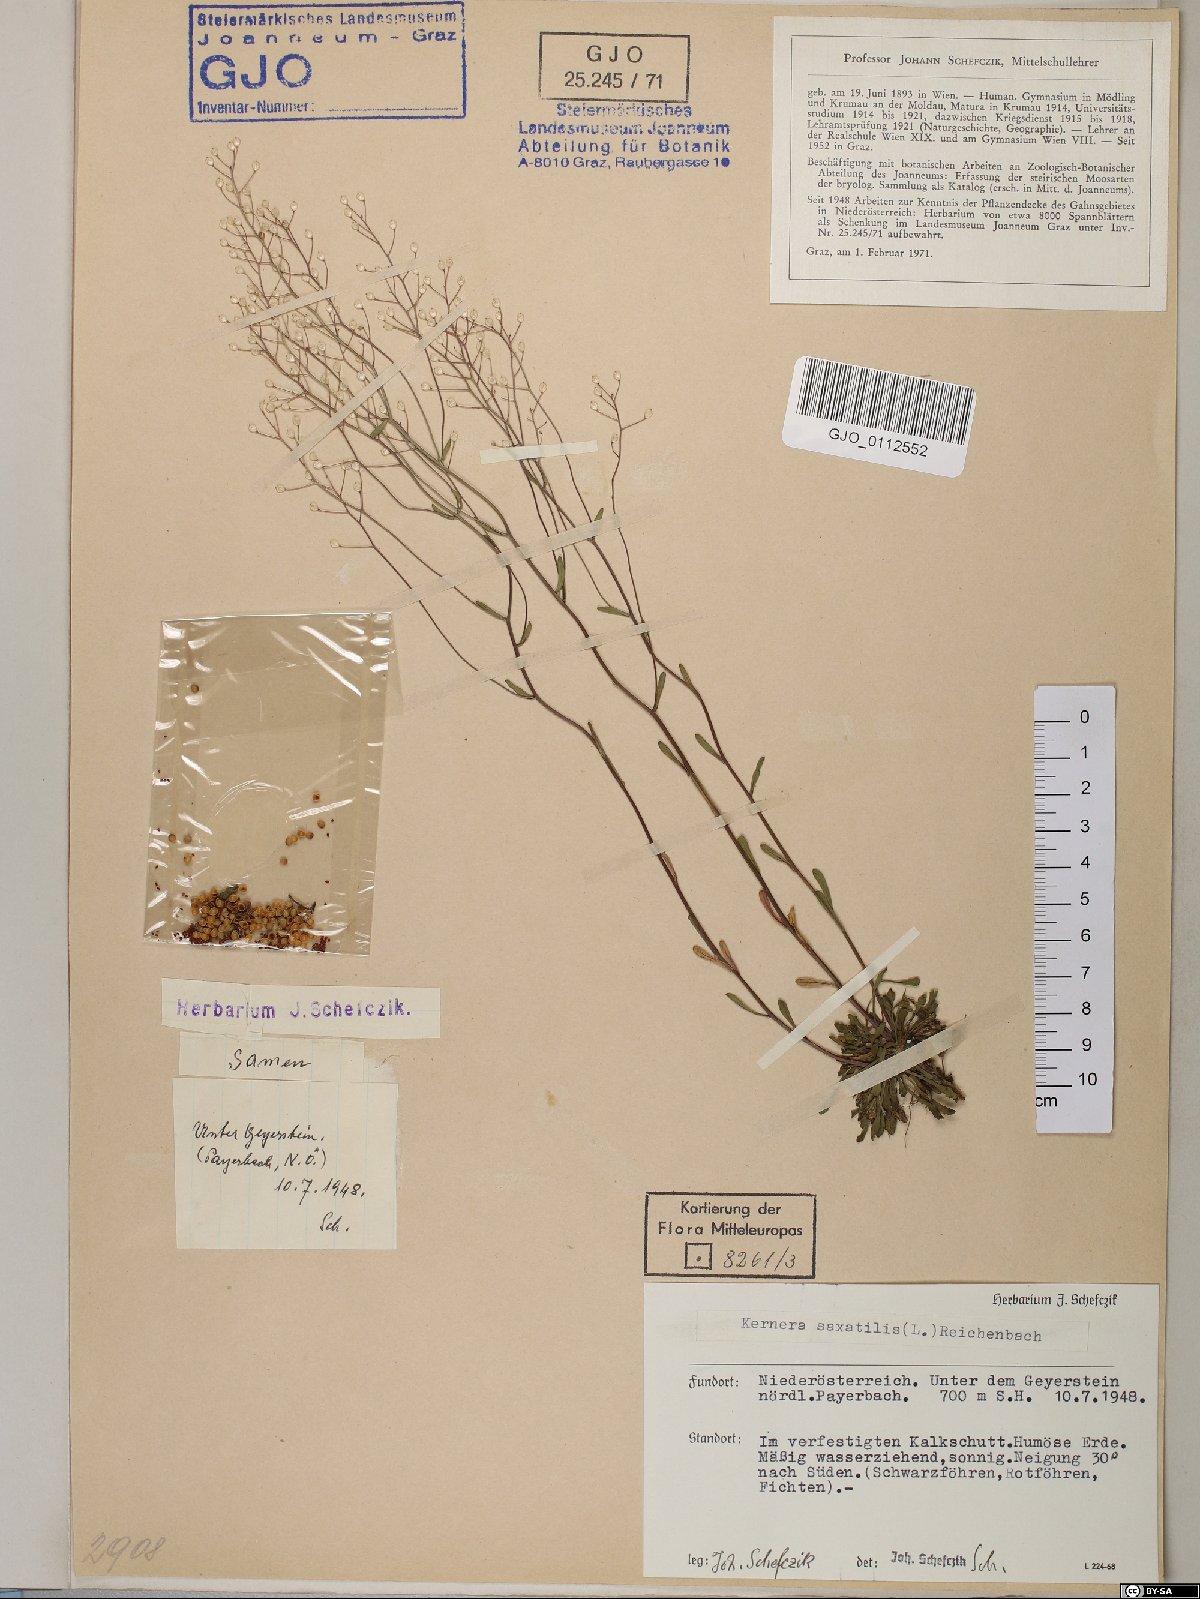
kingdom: Plantae
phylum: Tracheophyta
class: Magnoliopsida
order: Brassicales
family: Brassicaceae
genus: Kernera
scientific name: Kernera saxatilis
